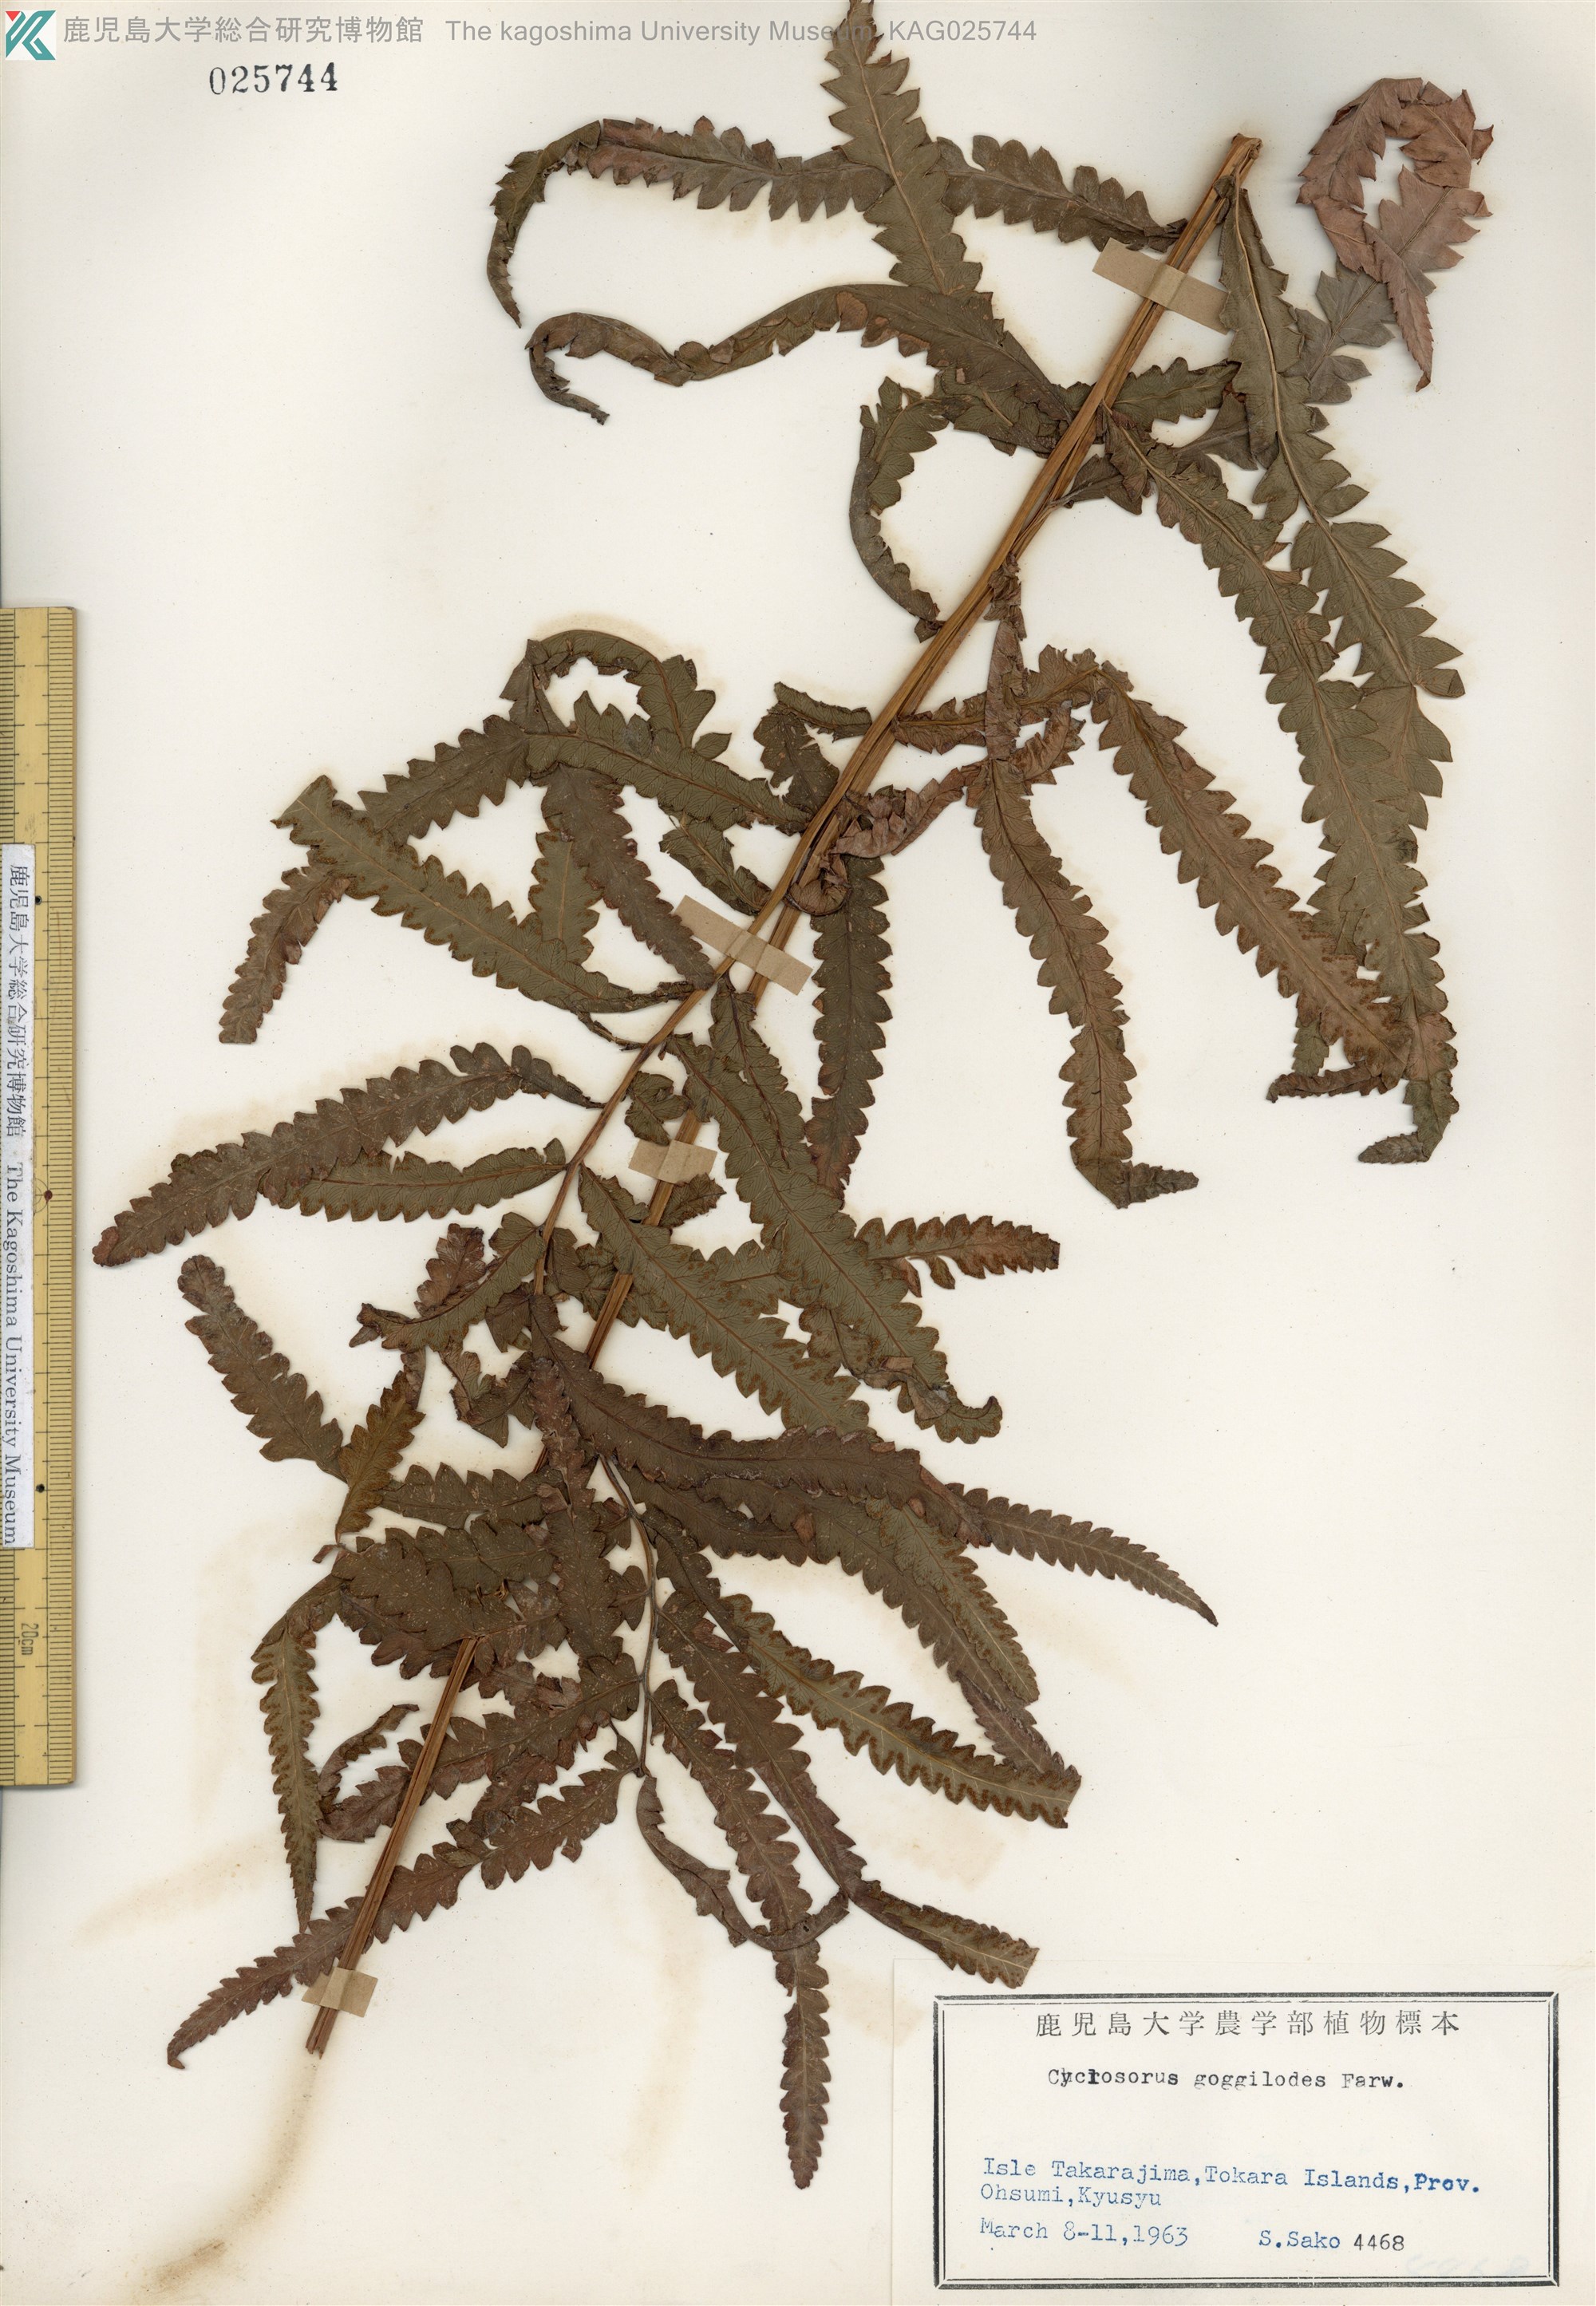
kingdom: Plantae
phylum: Tracheophyta
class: Polypodiopsida
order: Polypodiales
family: Thelypteridaceae
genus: Cyclosorus
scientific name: Cyclosorus interruptus
